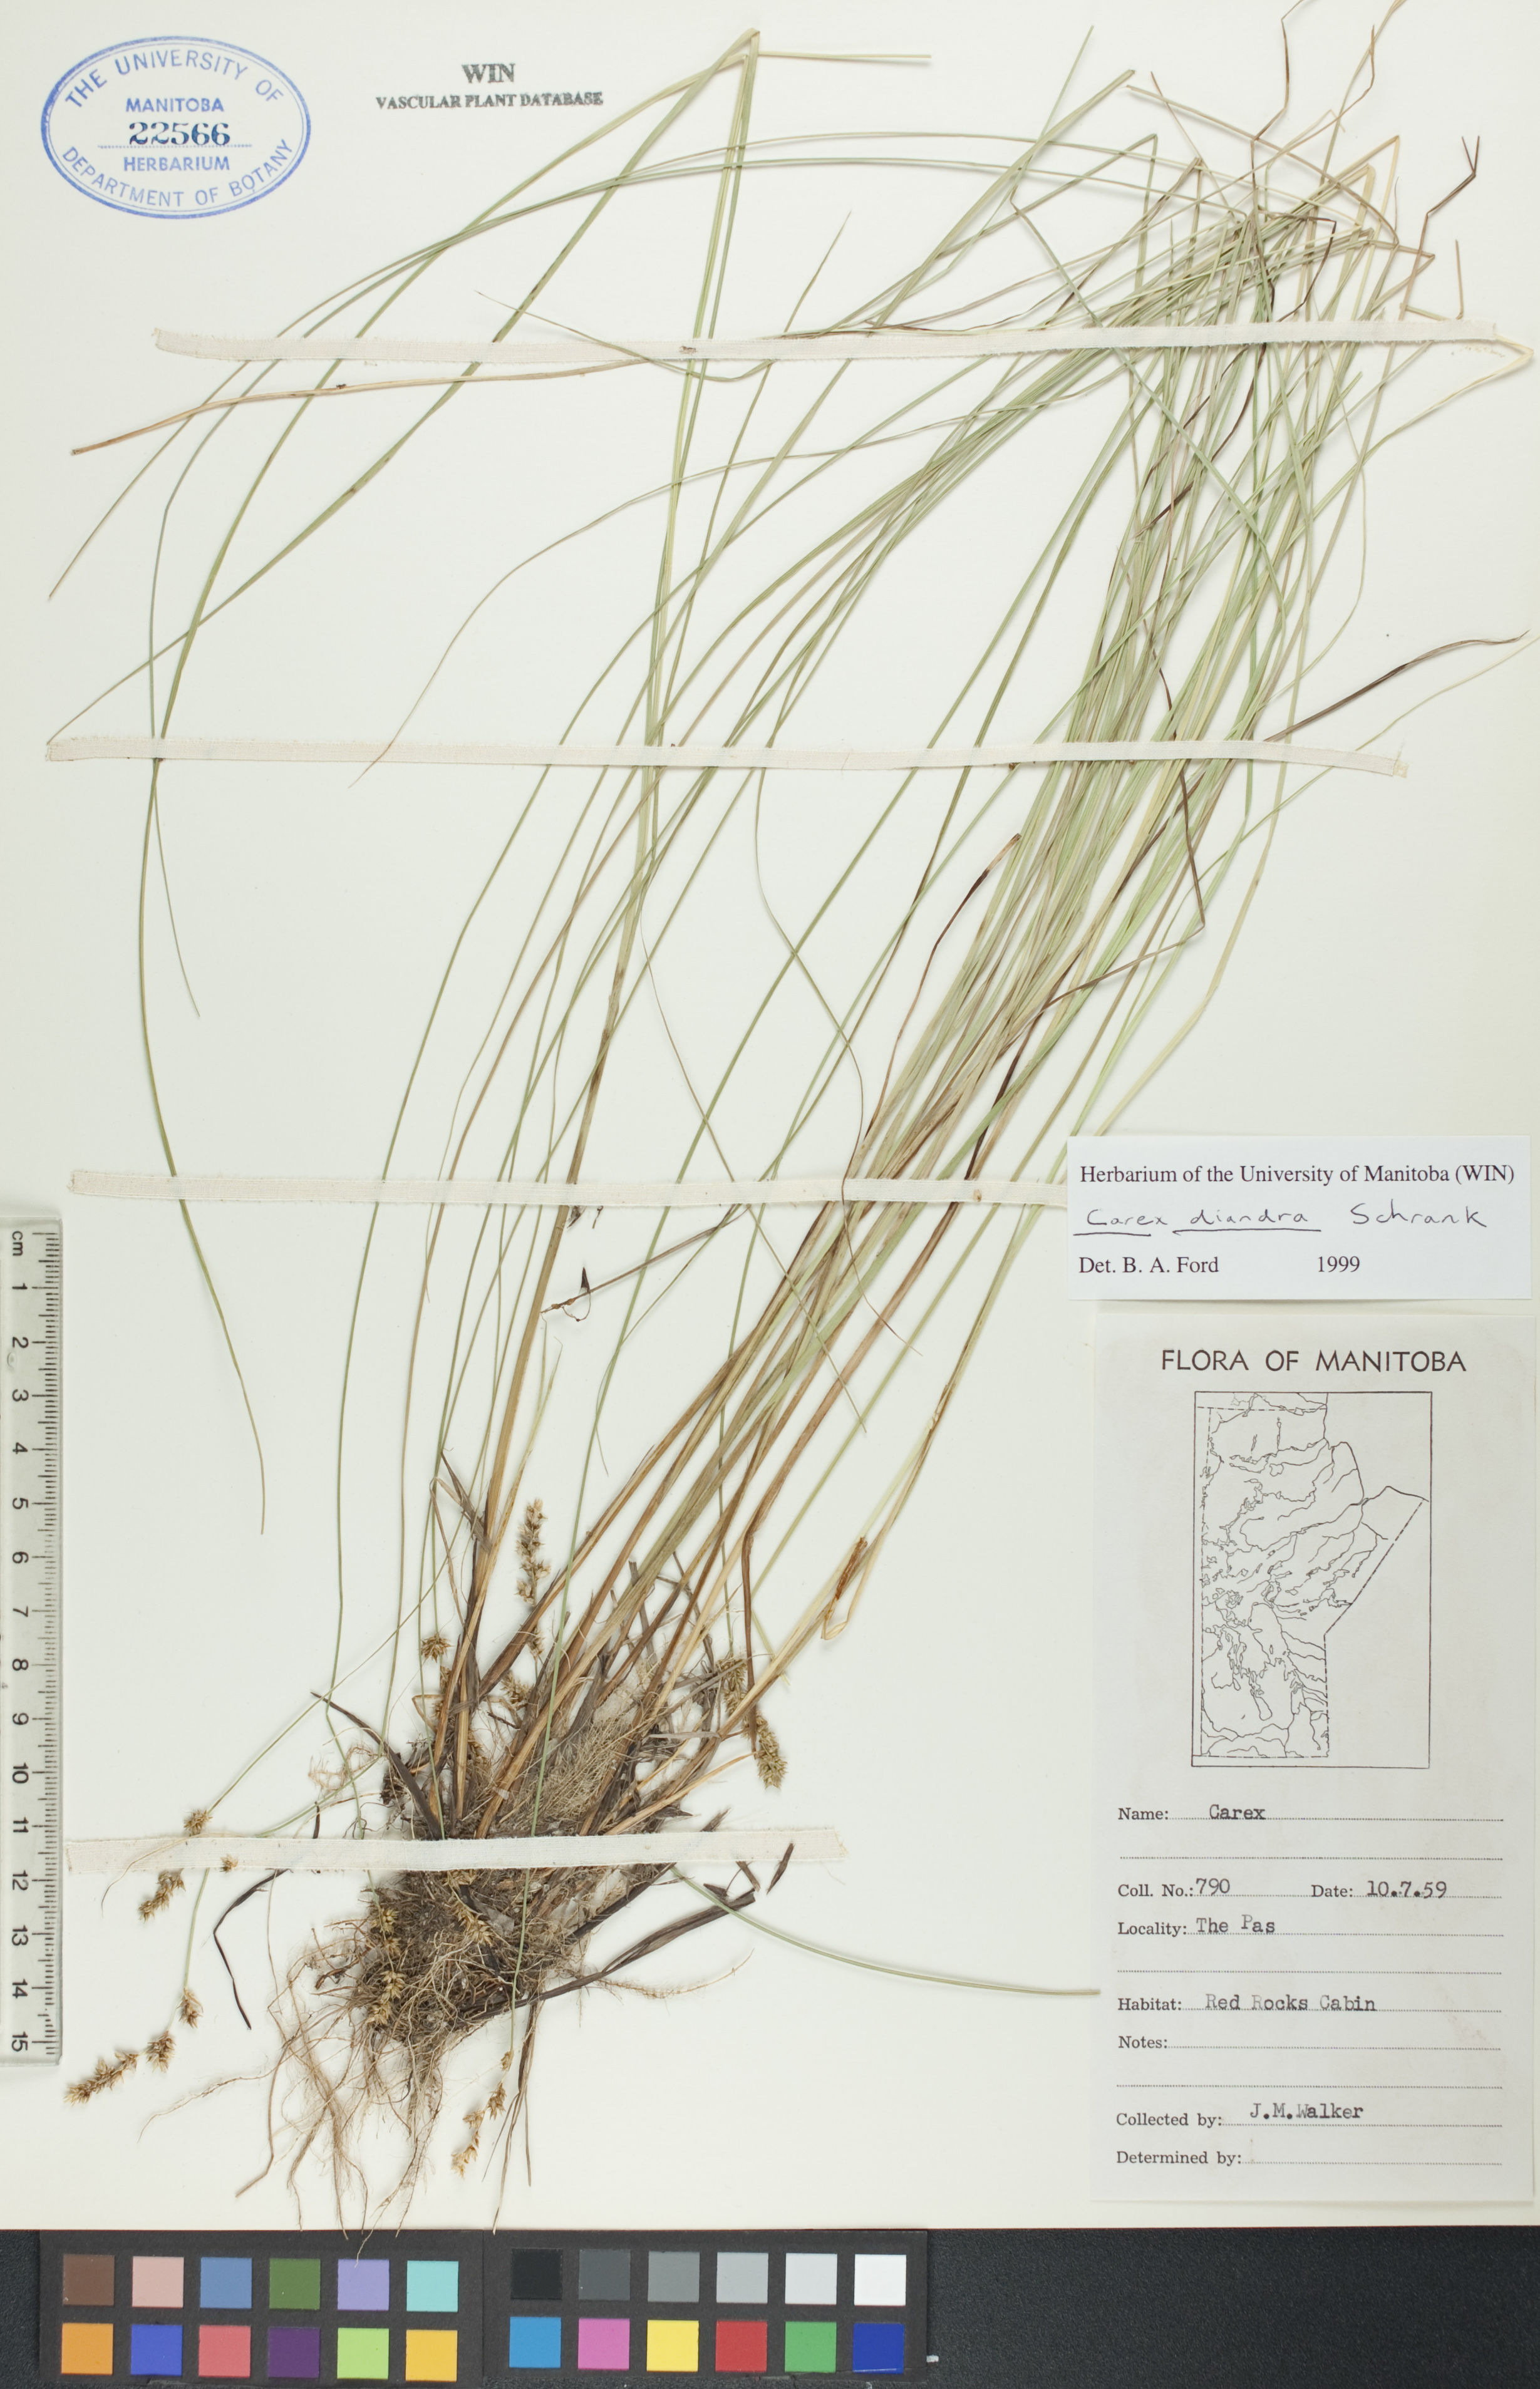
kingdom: Plantae
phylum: Tracheophyta
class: Liliopsida
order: Poales
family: Cyperaceae
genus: Carex
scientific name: Carex diandra
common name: Lesser tussock-sedge
